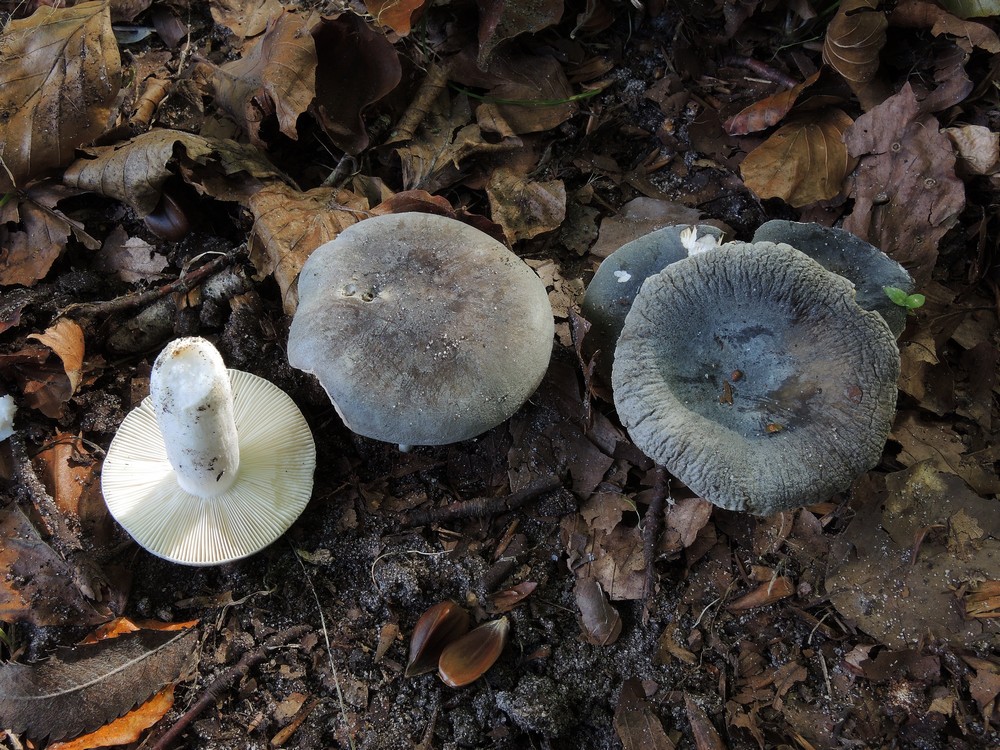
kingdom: Fungi
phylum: Basidiomycota
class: Agaricomycetes
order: Russulales
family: Russulaceae
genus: Russula
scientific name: Russula parazurea
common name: blågrå skørhat
